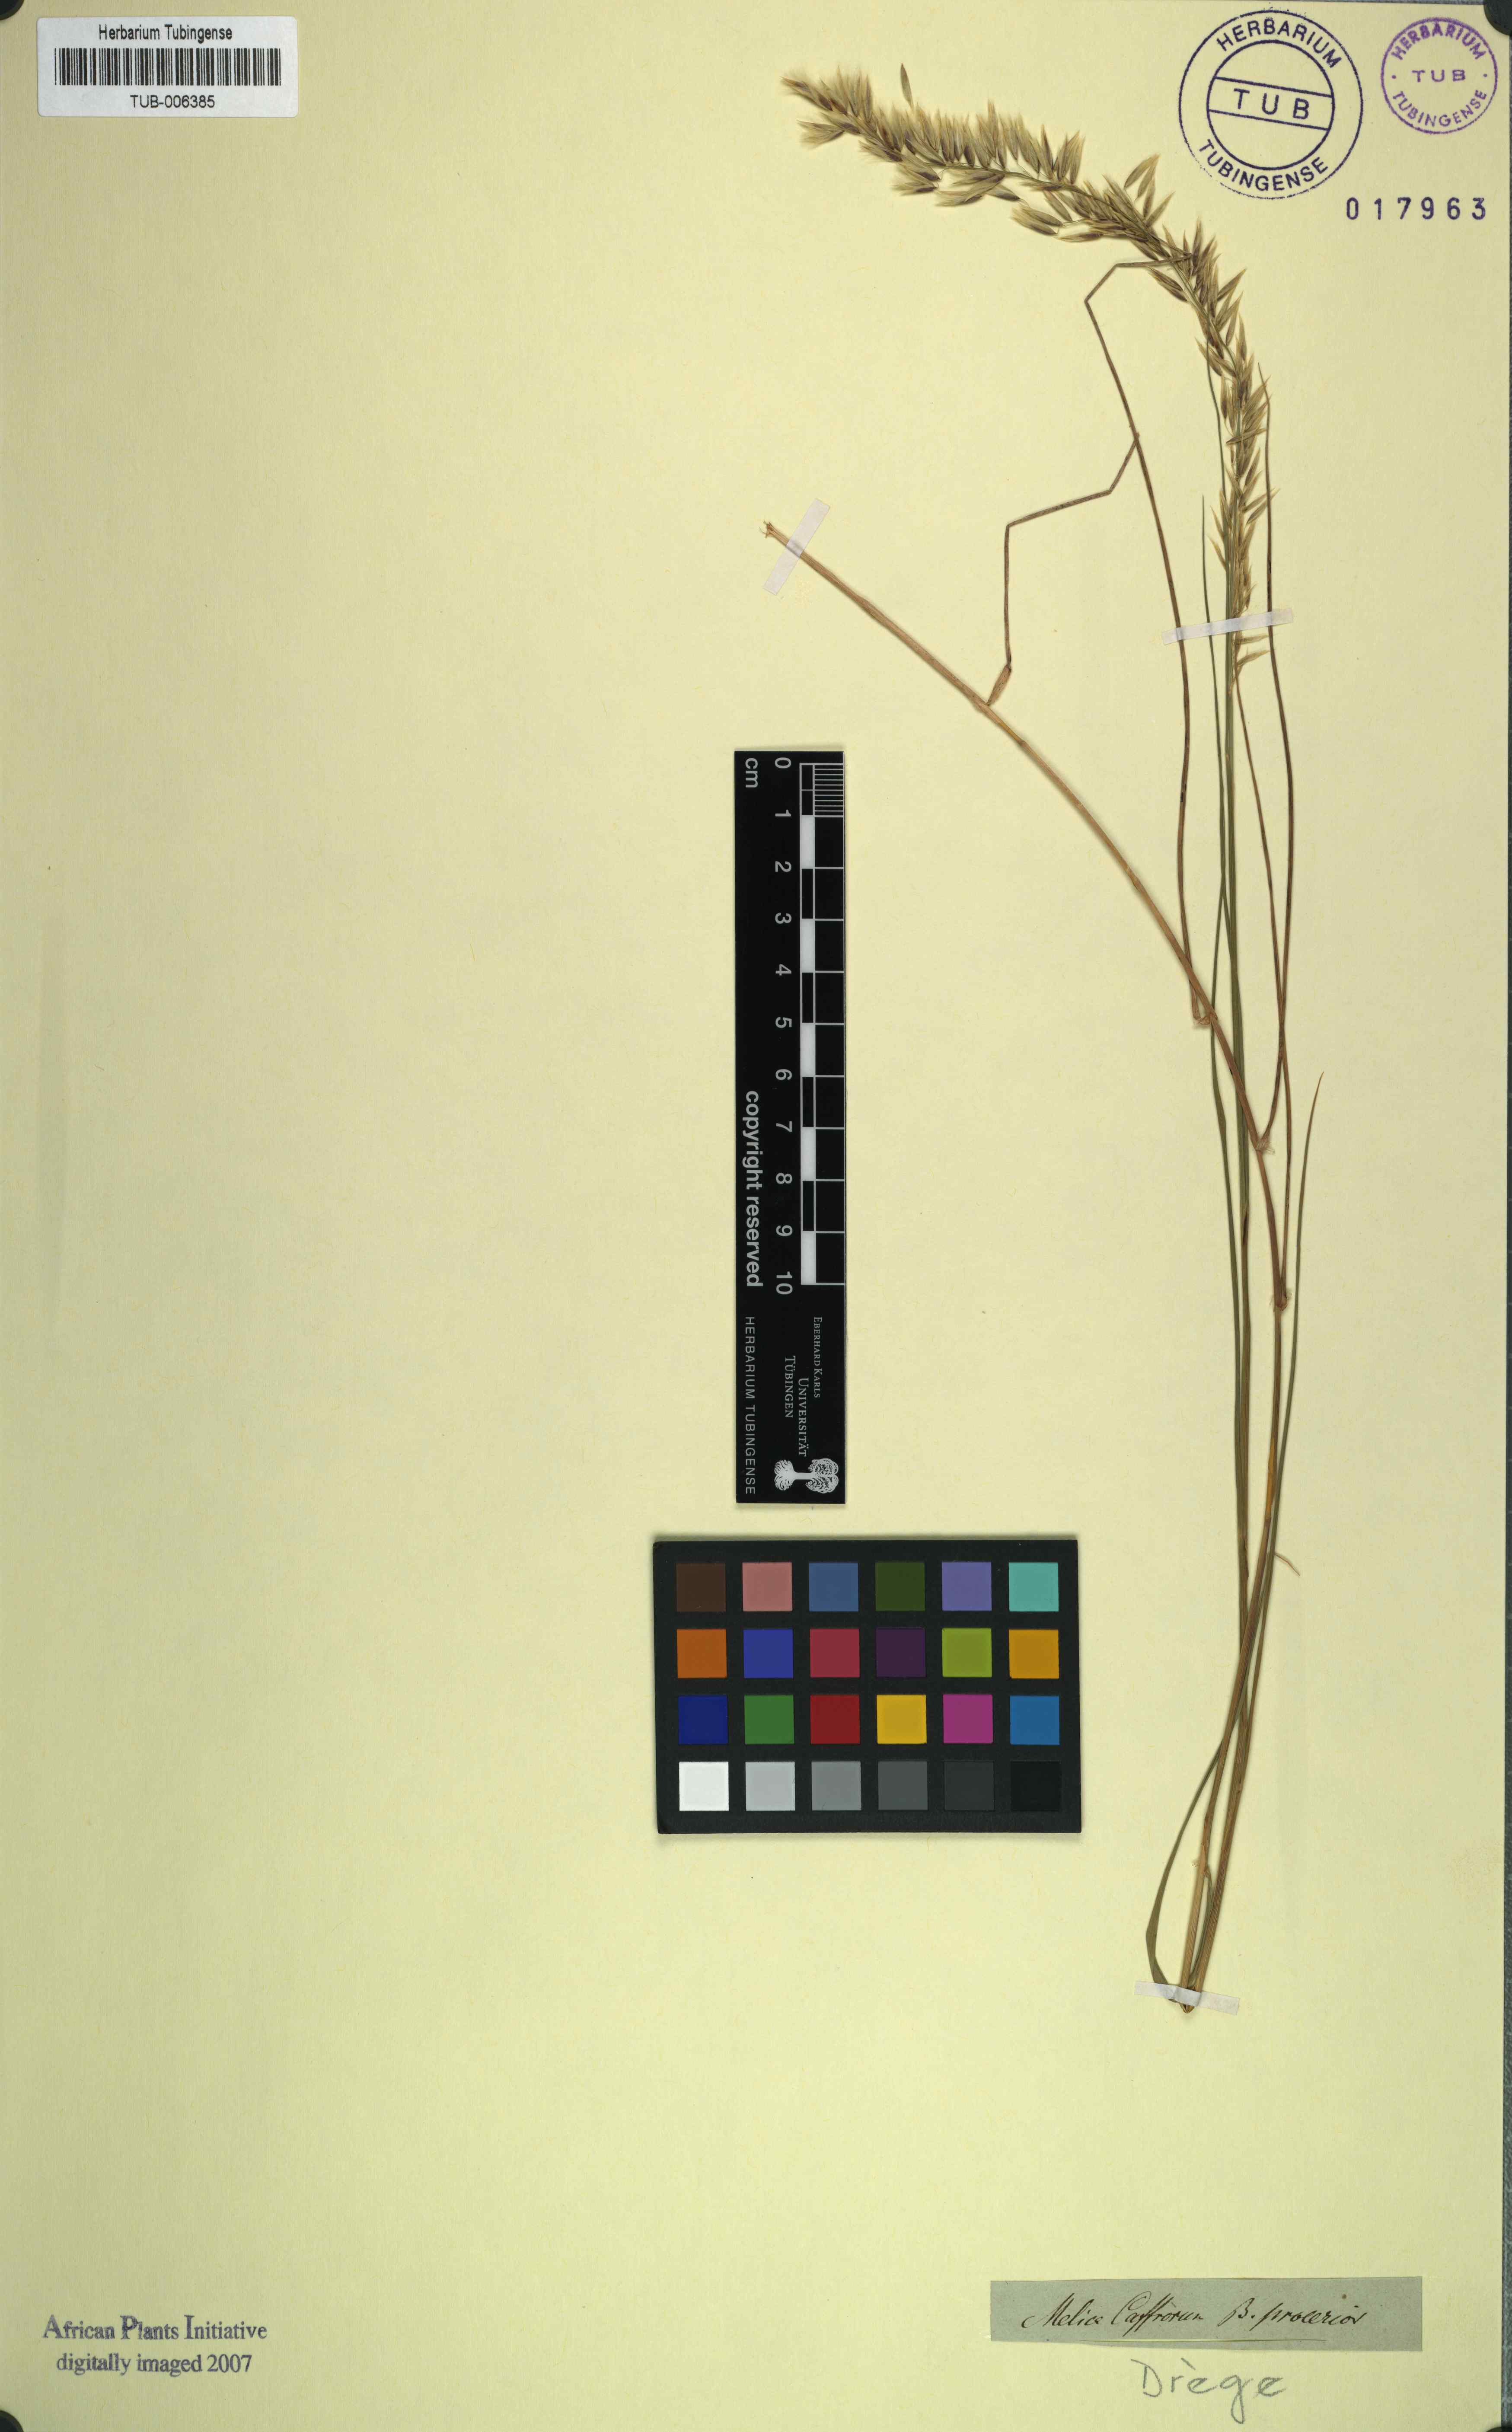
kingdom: Plantae
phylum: Tracheophyta
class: Liliopsida
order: Poales
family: Poaceae
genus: Melica
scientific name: Melica racemosa
